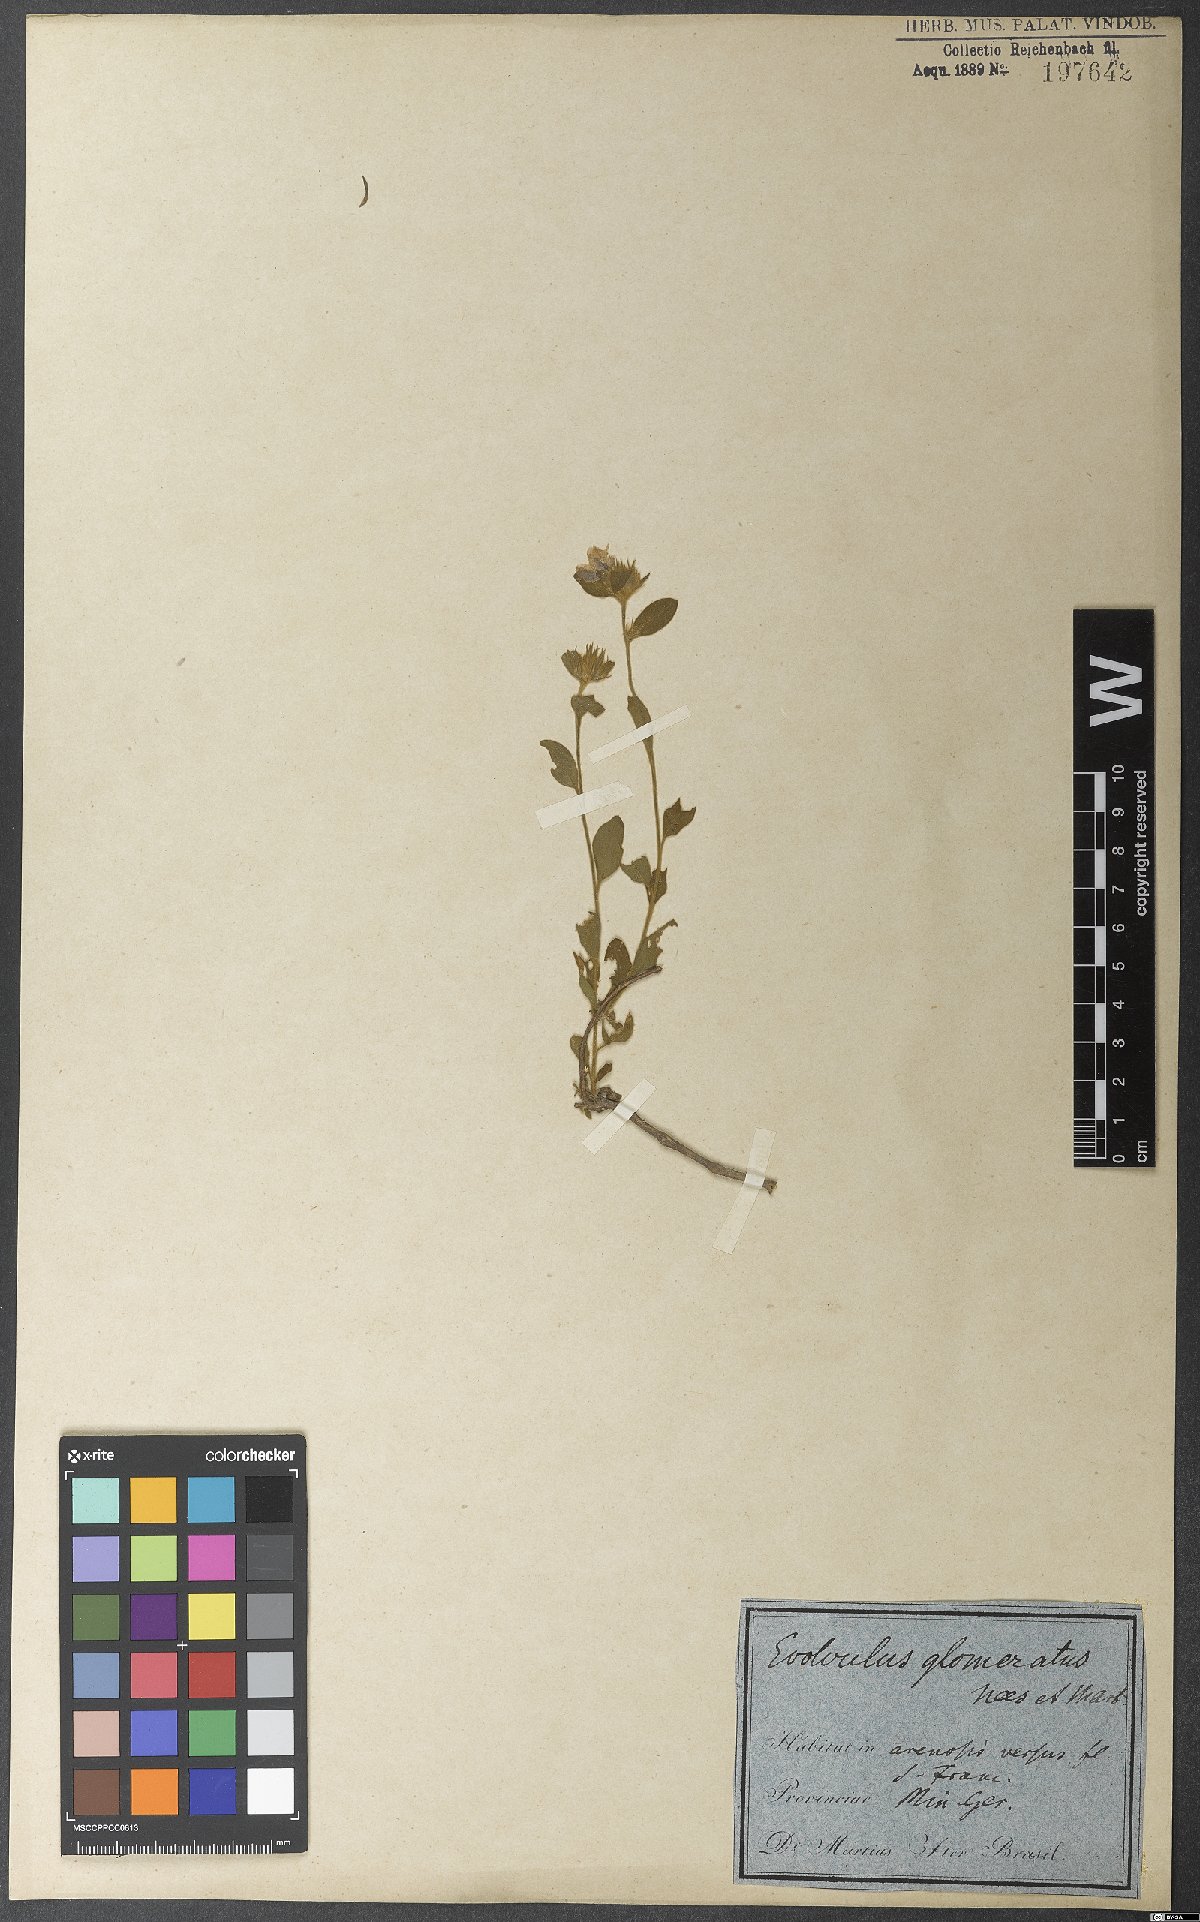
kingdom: Plantae
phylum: Tracheophyta
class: Magnoliopsida
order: Solanales
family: Convolvulaceae
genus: Evolvulus
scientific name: Evolvulus glomeratus
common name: Brazilian dwarf morning-glory
